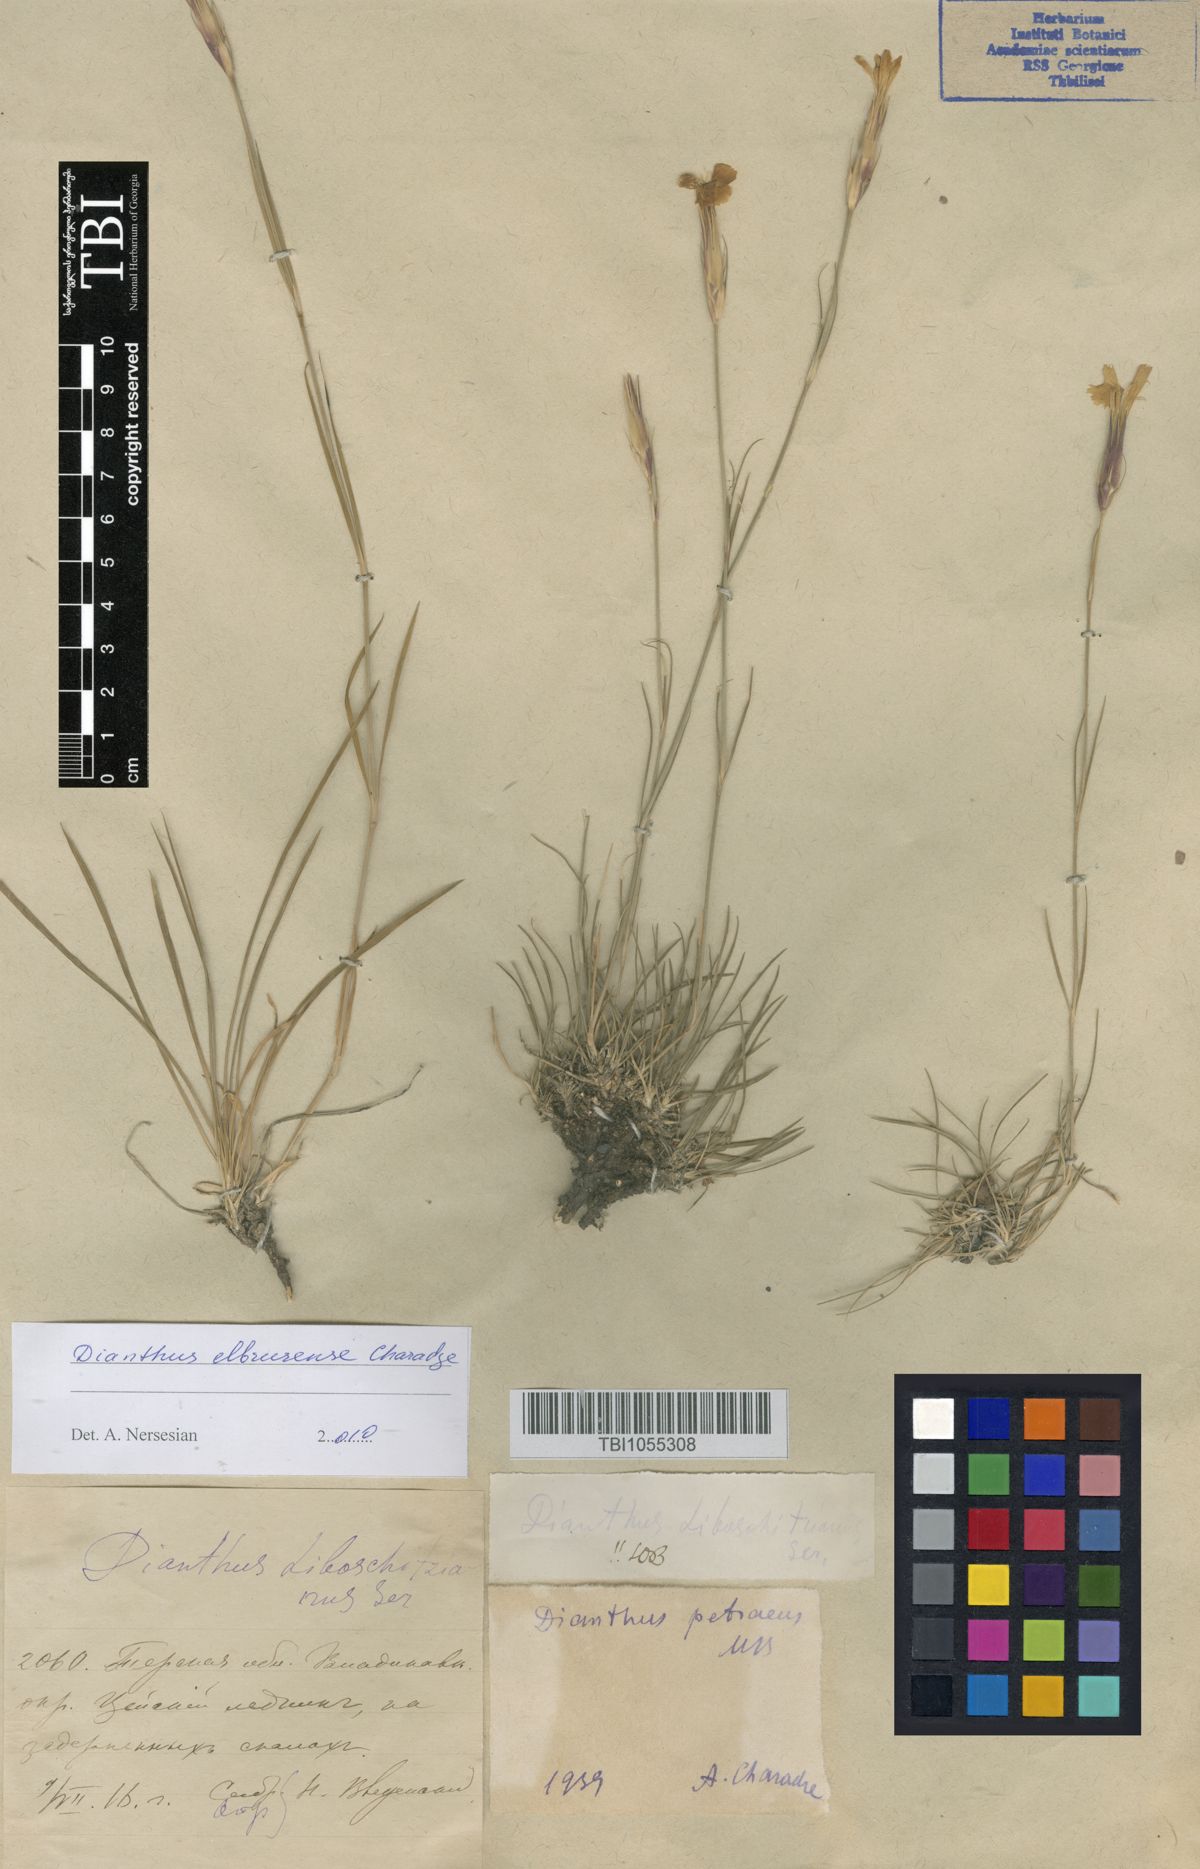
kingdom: Plantae
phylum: Tracheophyta
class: Magnoliopsida
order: Caryophyllales
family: Caryophyllaceae
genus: Dianthus
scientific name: Dianthus cretaceus
